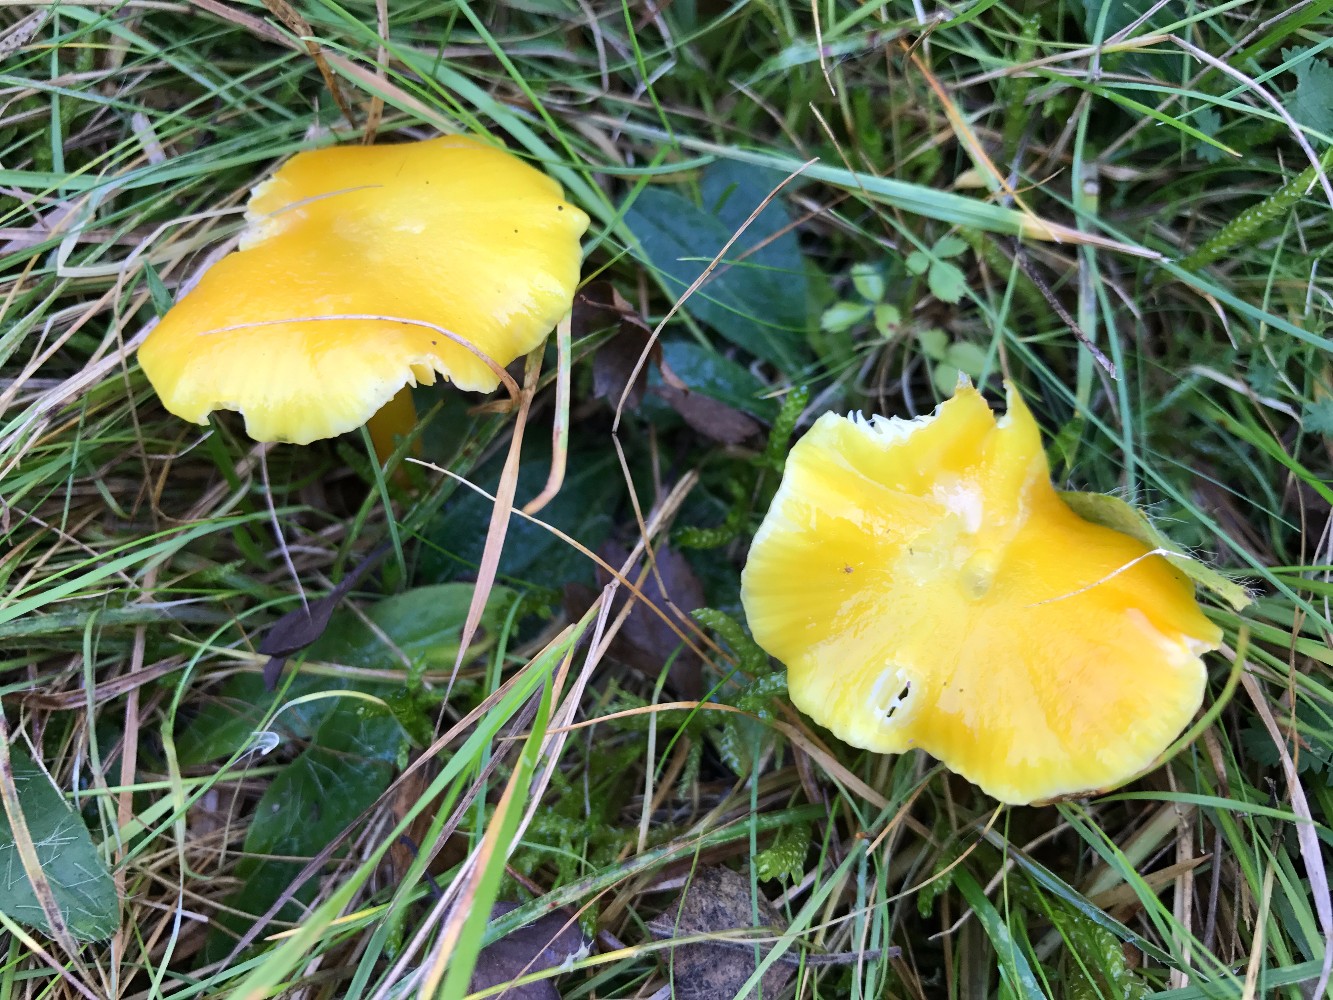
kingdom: Fungi
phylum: Basidiomycota
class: Agaricomycetes
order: Agaricales
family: Hygrophoraceae
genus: Hygrocybe
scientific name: Hygrocybe chlorophana
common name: gul vokshat
